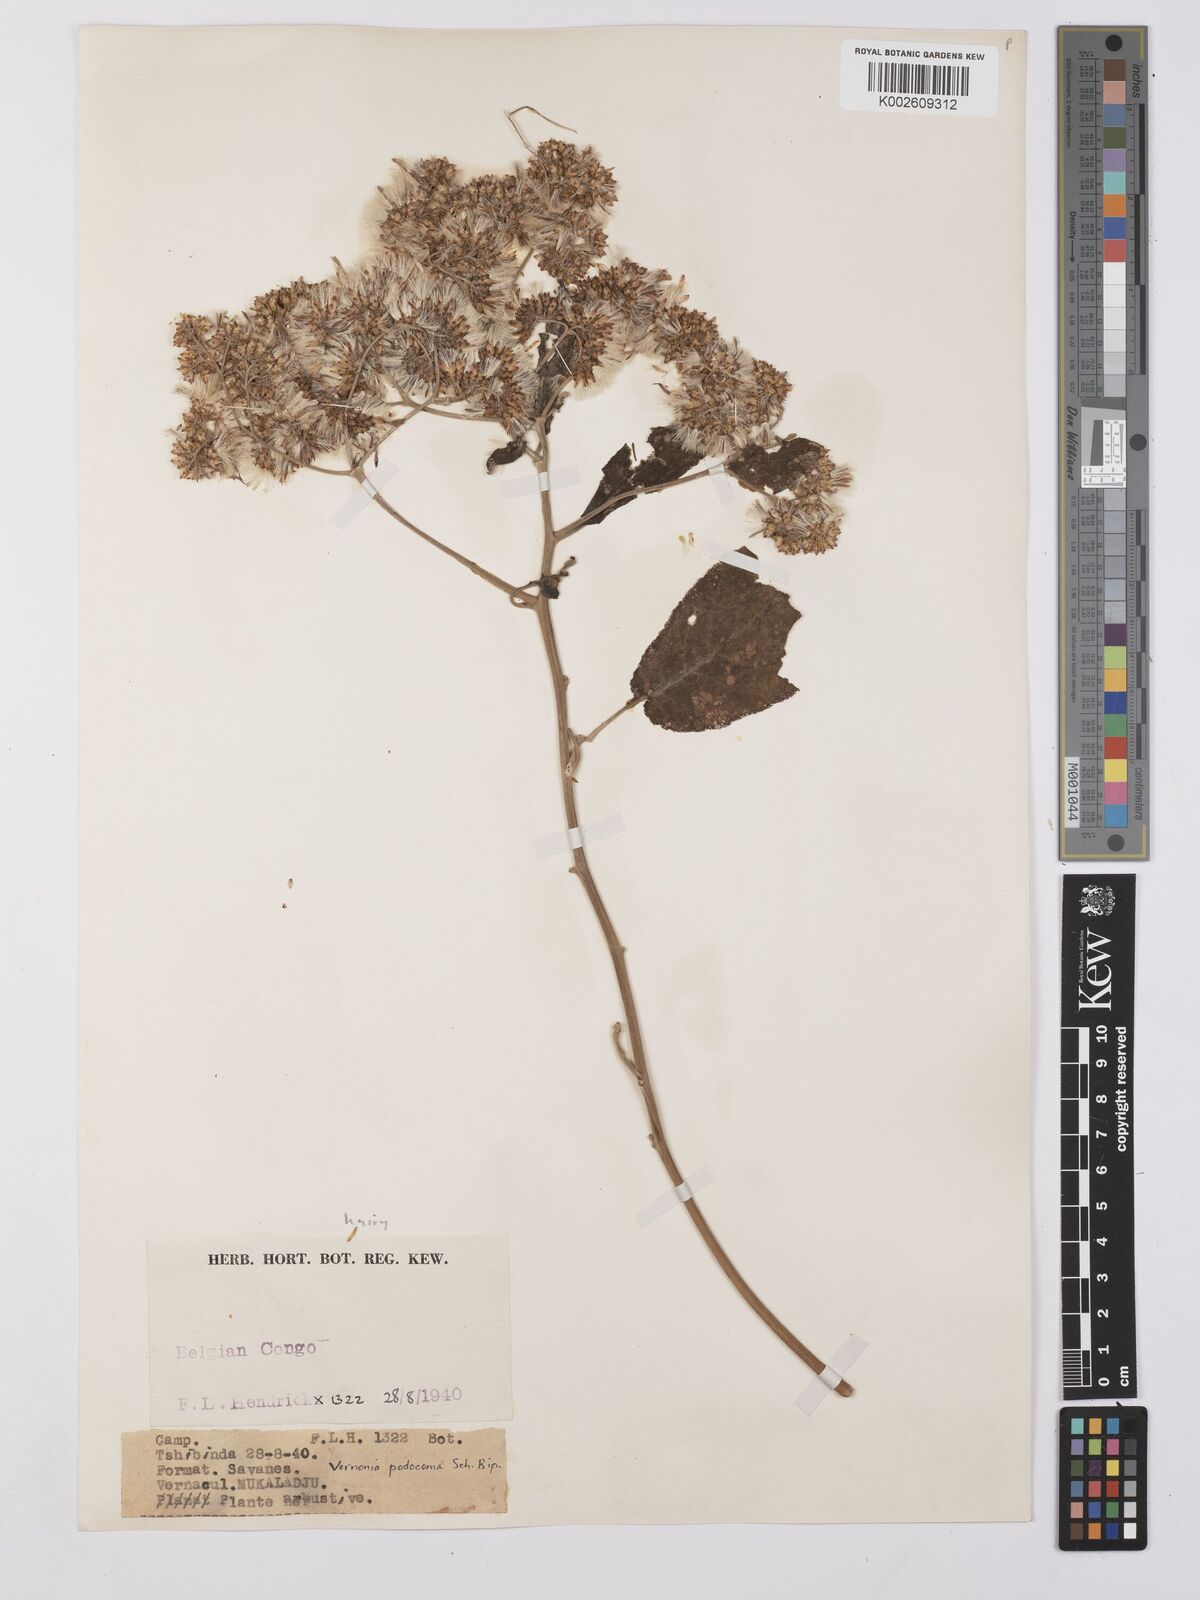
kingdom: Plantae
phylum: Tracheophyta
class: Magnoliopsida
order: Asterales
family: Asteraceae
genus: Gymnanthemum
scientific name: Gymnanthemum myrianthum
